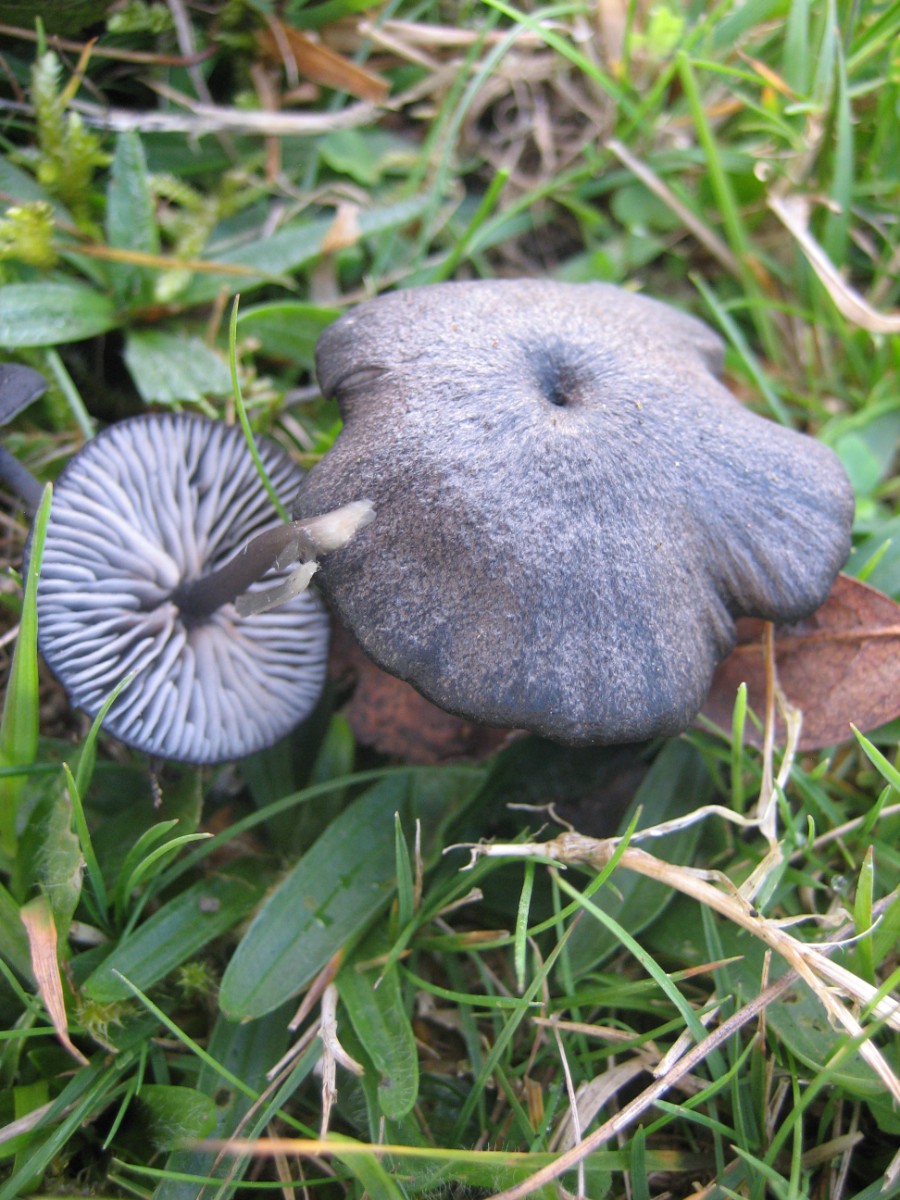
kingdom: Fungi
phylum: Basidiomycota
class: Agaricomycetes
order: Agaricales
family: Entolomataceae
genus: Entoloma
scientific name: Entoloma
